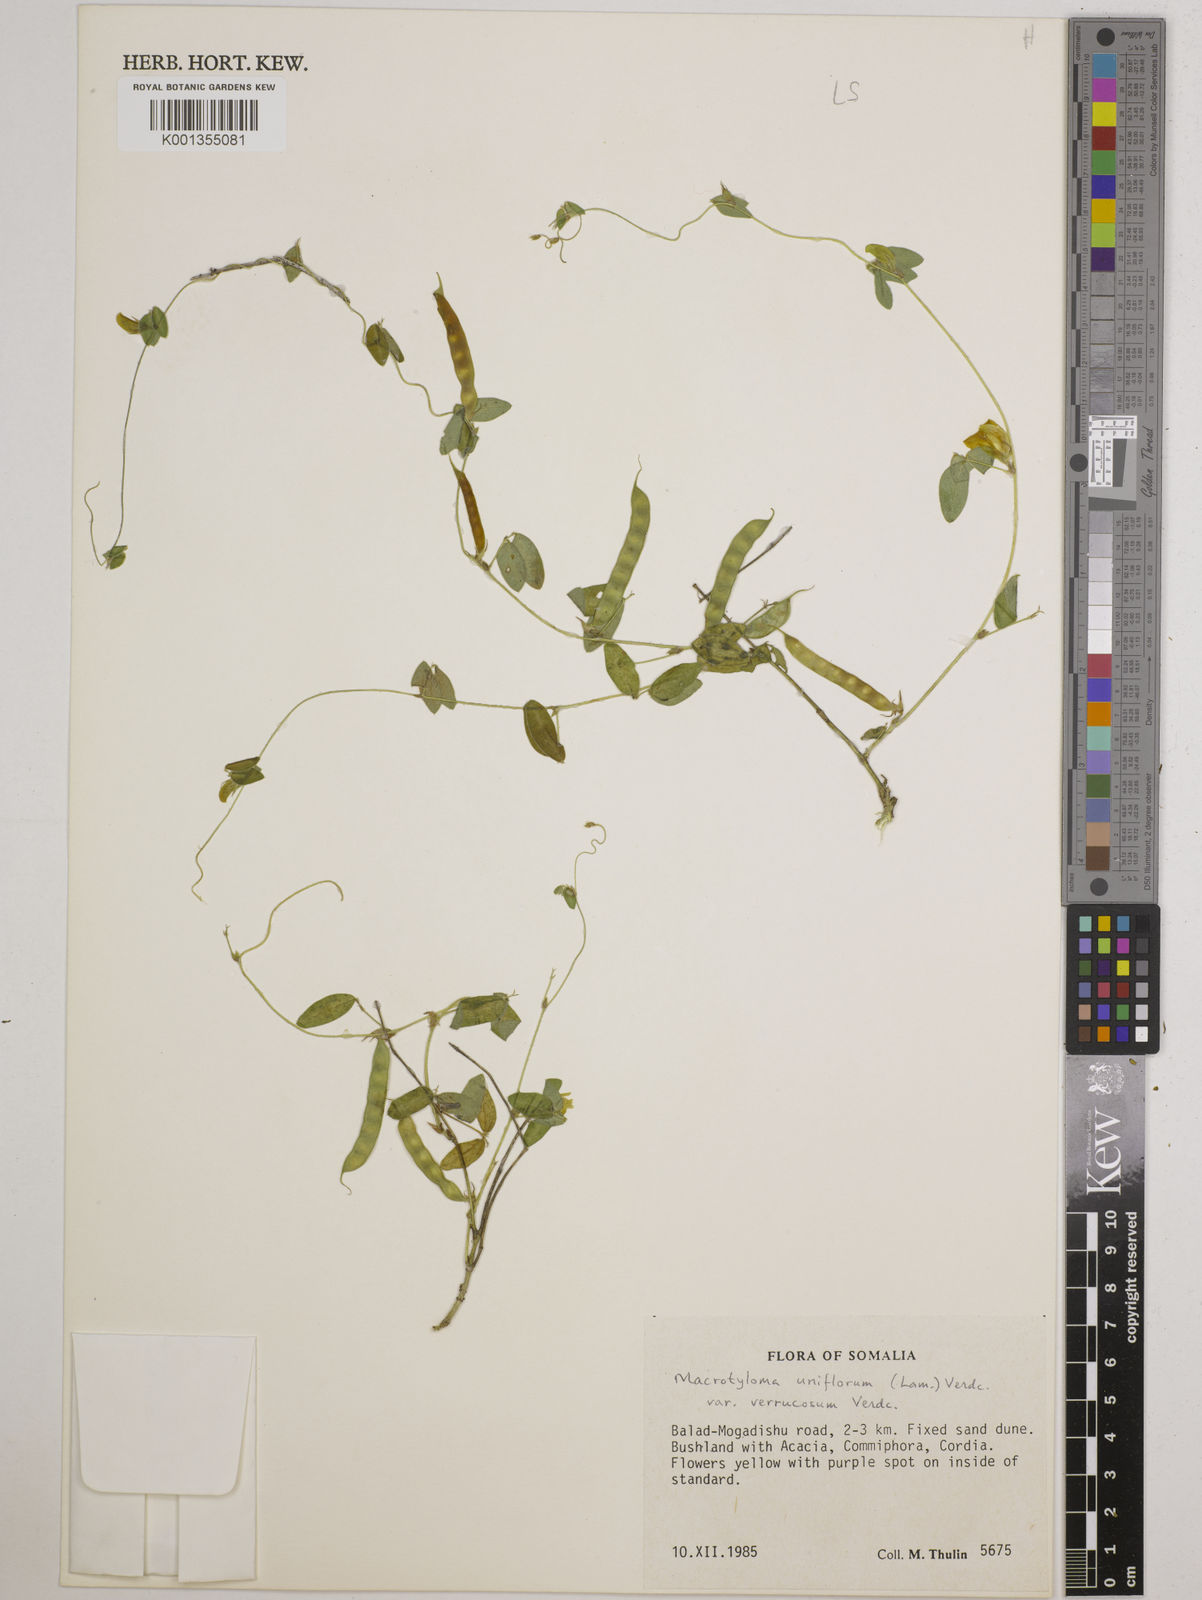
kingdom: Plantae
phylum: Tracheophyta
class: Magnoliopsida
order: Fabales
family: Fabaceae
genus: Macrotyloma
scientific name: Macrotyloma
